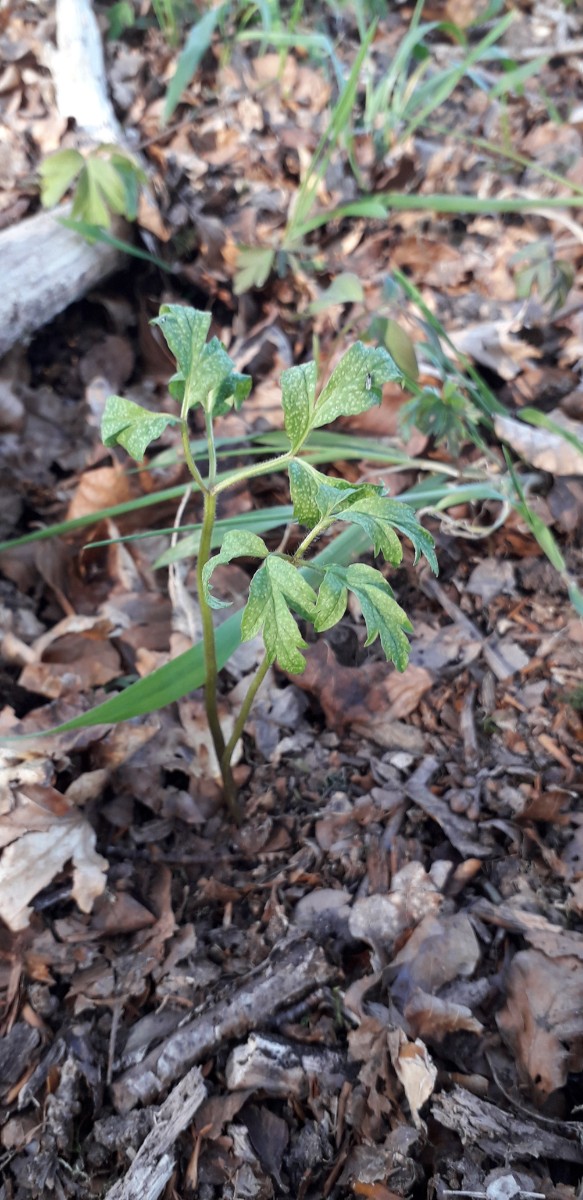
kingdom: Fungi
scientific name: Fungi
